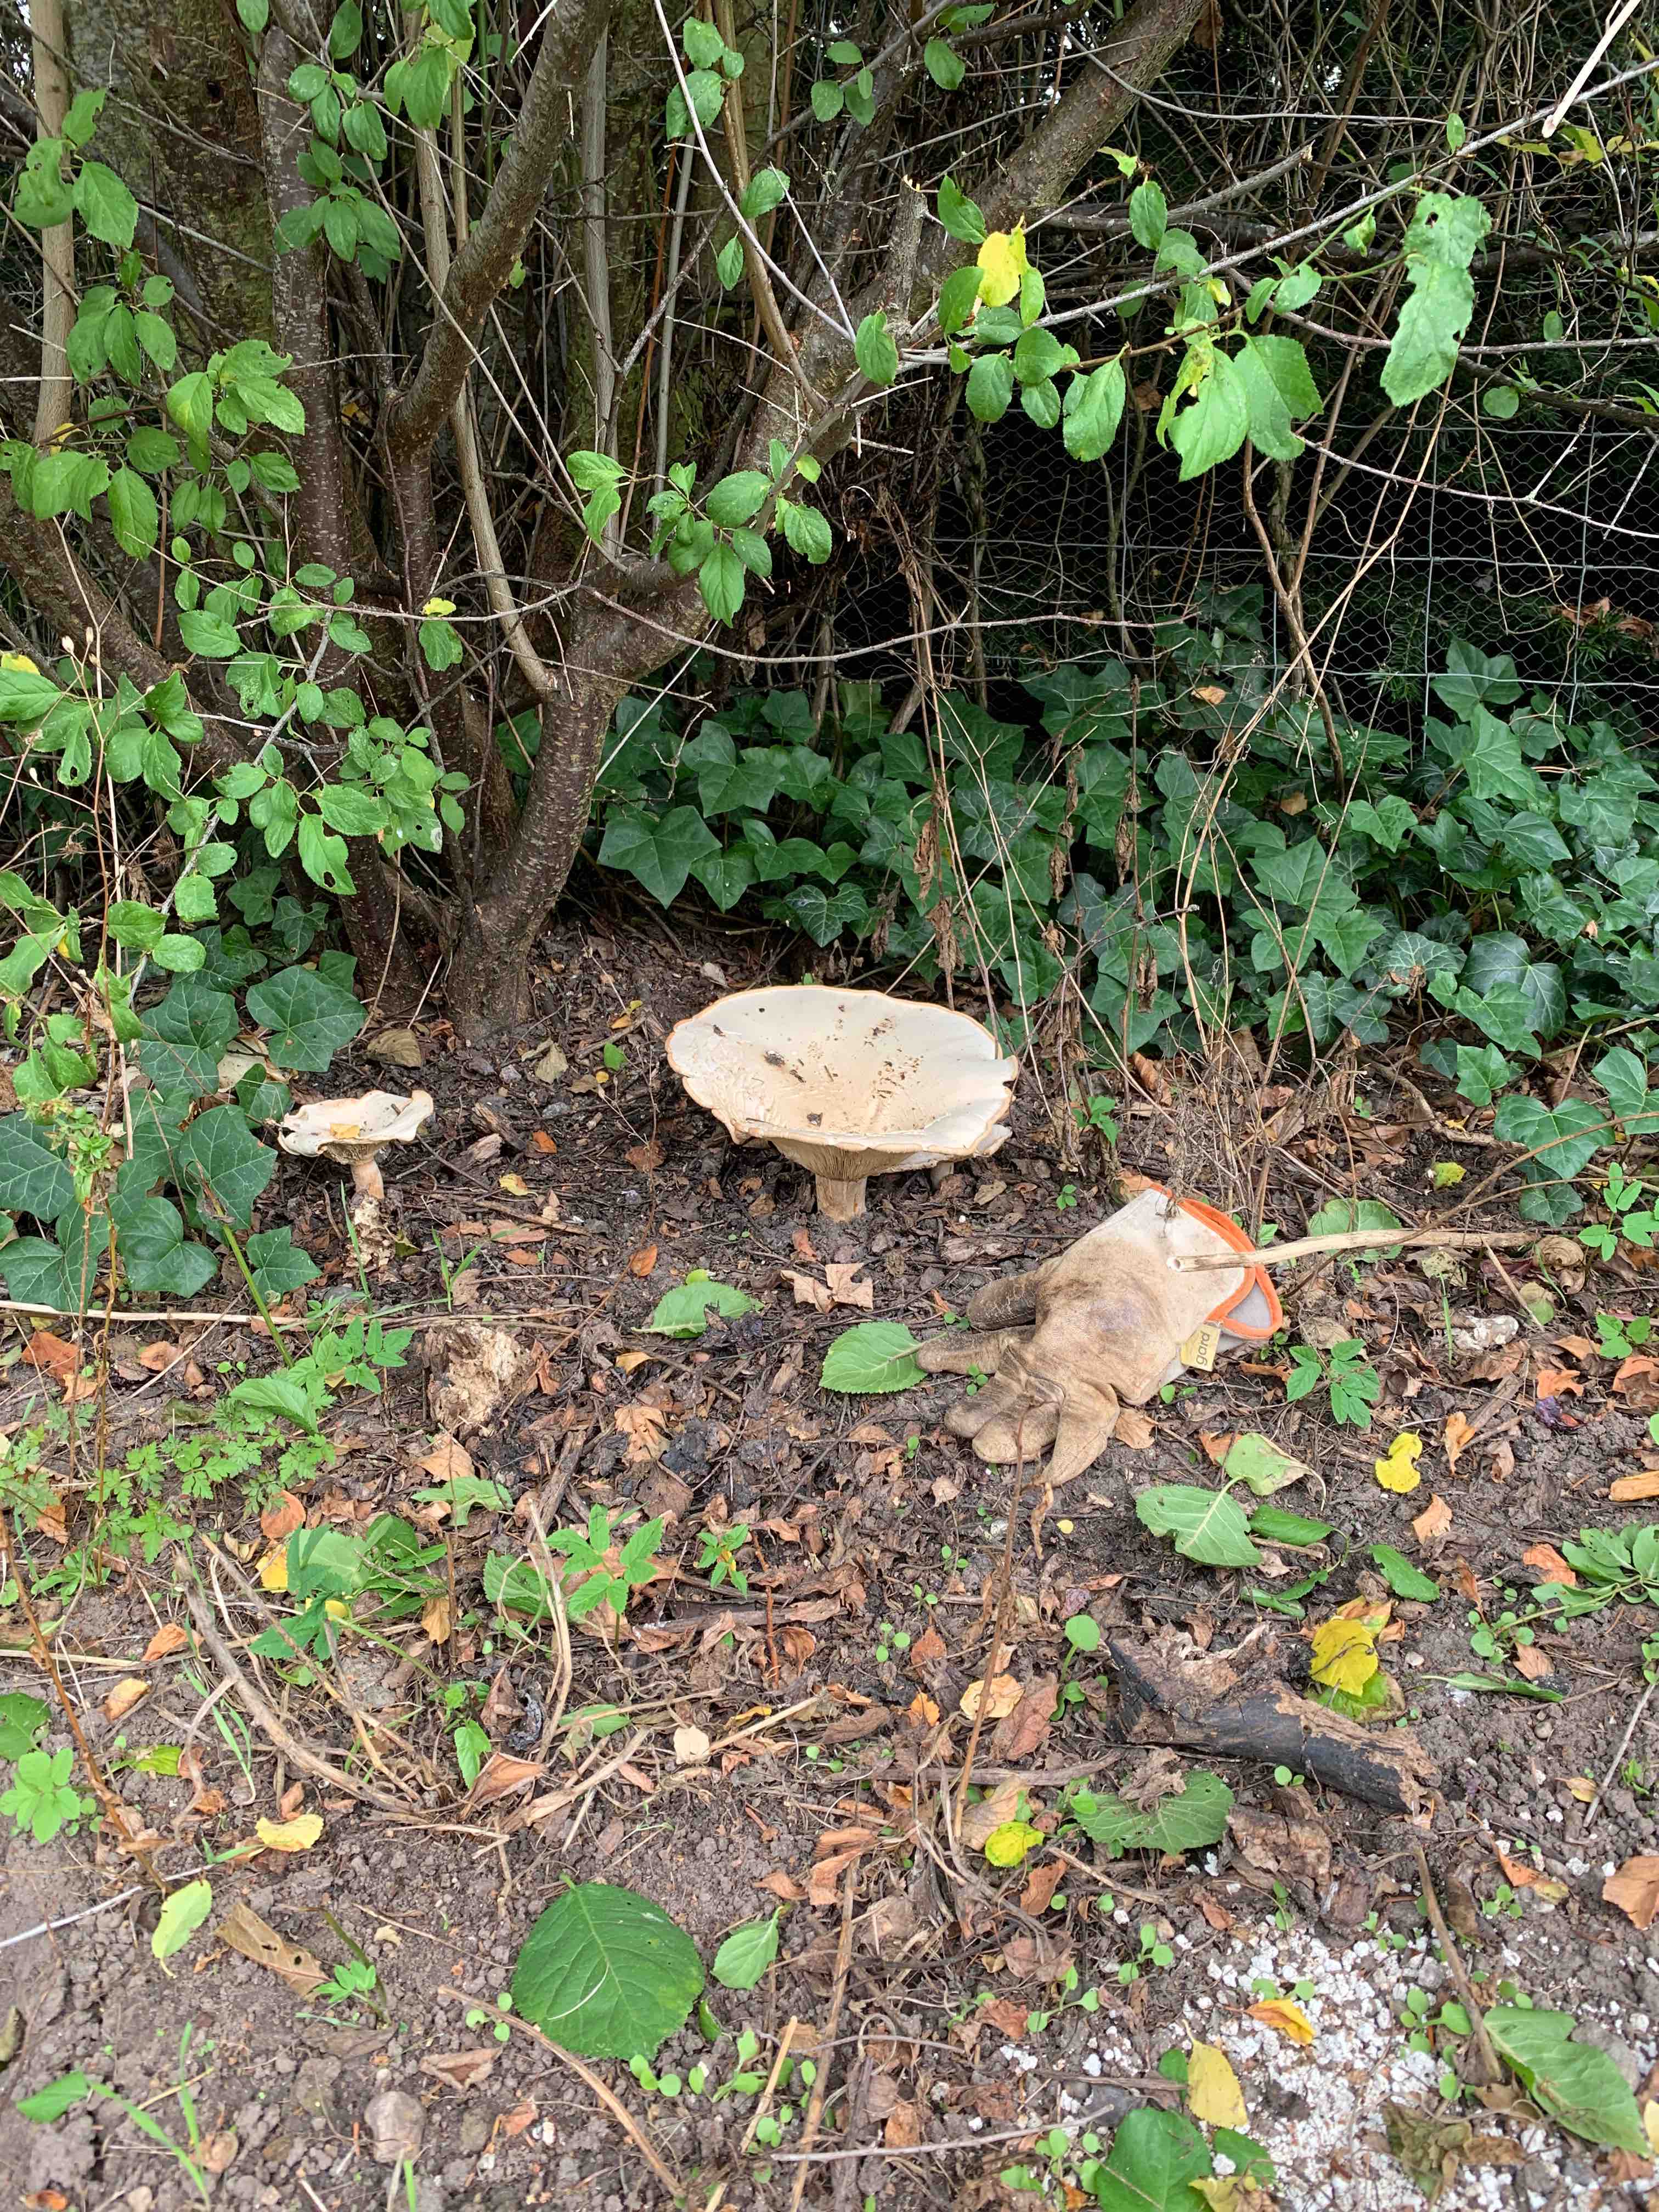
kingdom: Fungi
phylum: Basidiomycota
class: Agaricomycetes
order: Agaricales
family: Tricholomataceae
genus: Aspropaxillus
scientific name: Aspropaxillus giganteus
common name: kæmpe-tragtridderhat
